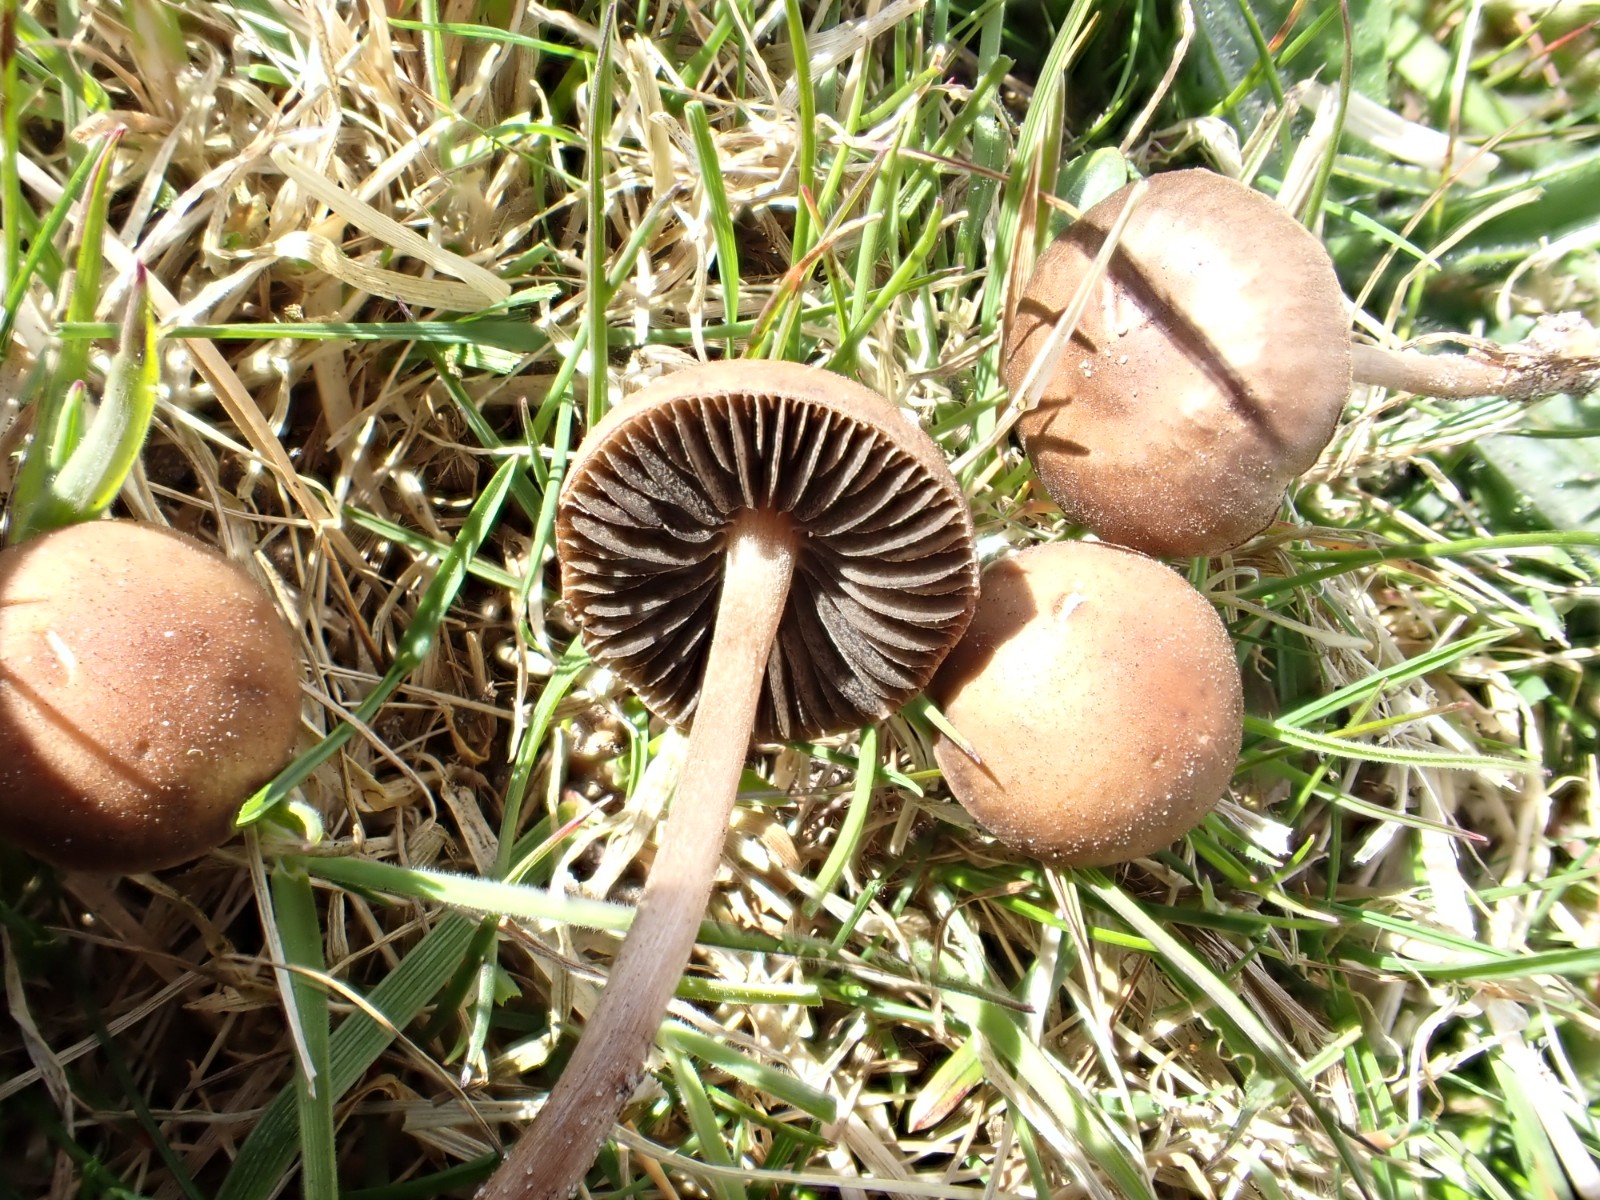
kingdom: Fungi
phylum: Basidiomycota
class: Agaricomycetes
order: Agaricales
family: Bolbitiaceae
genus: Panaeolus
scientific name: Panaeolus fimicola
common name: tidlig glanshat
